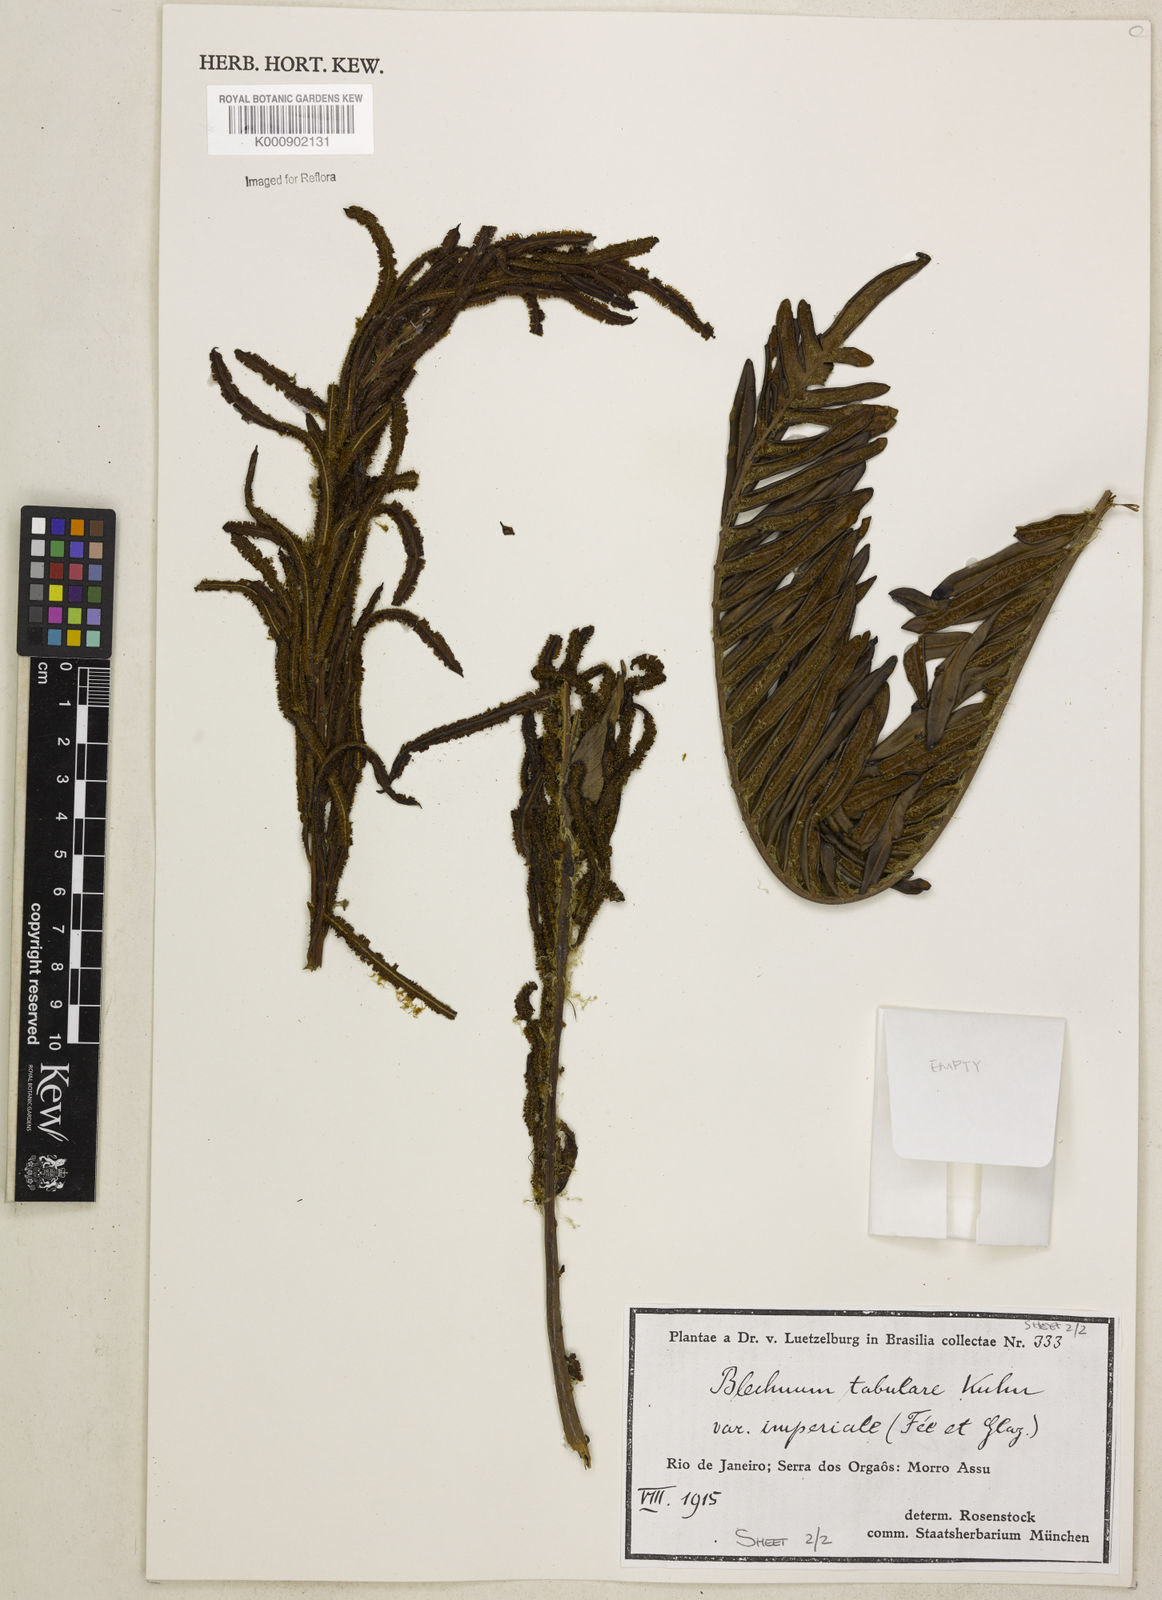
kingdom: Plantae
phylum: Tracheophyta
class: Polypodiopsida
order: Polypodiales
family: Blechnaceae
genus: Lomariocycas
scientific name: Lomariocycas obtusifolia
